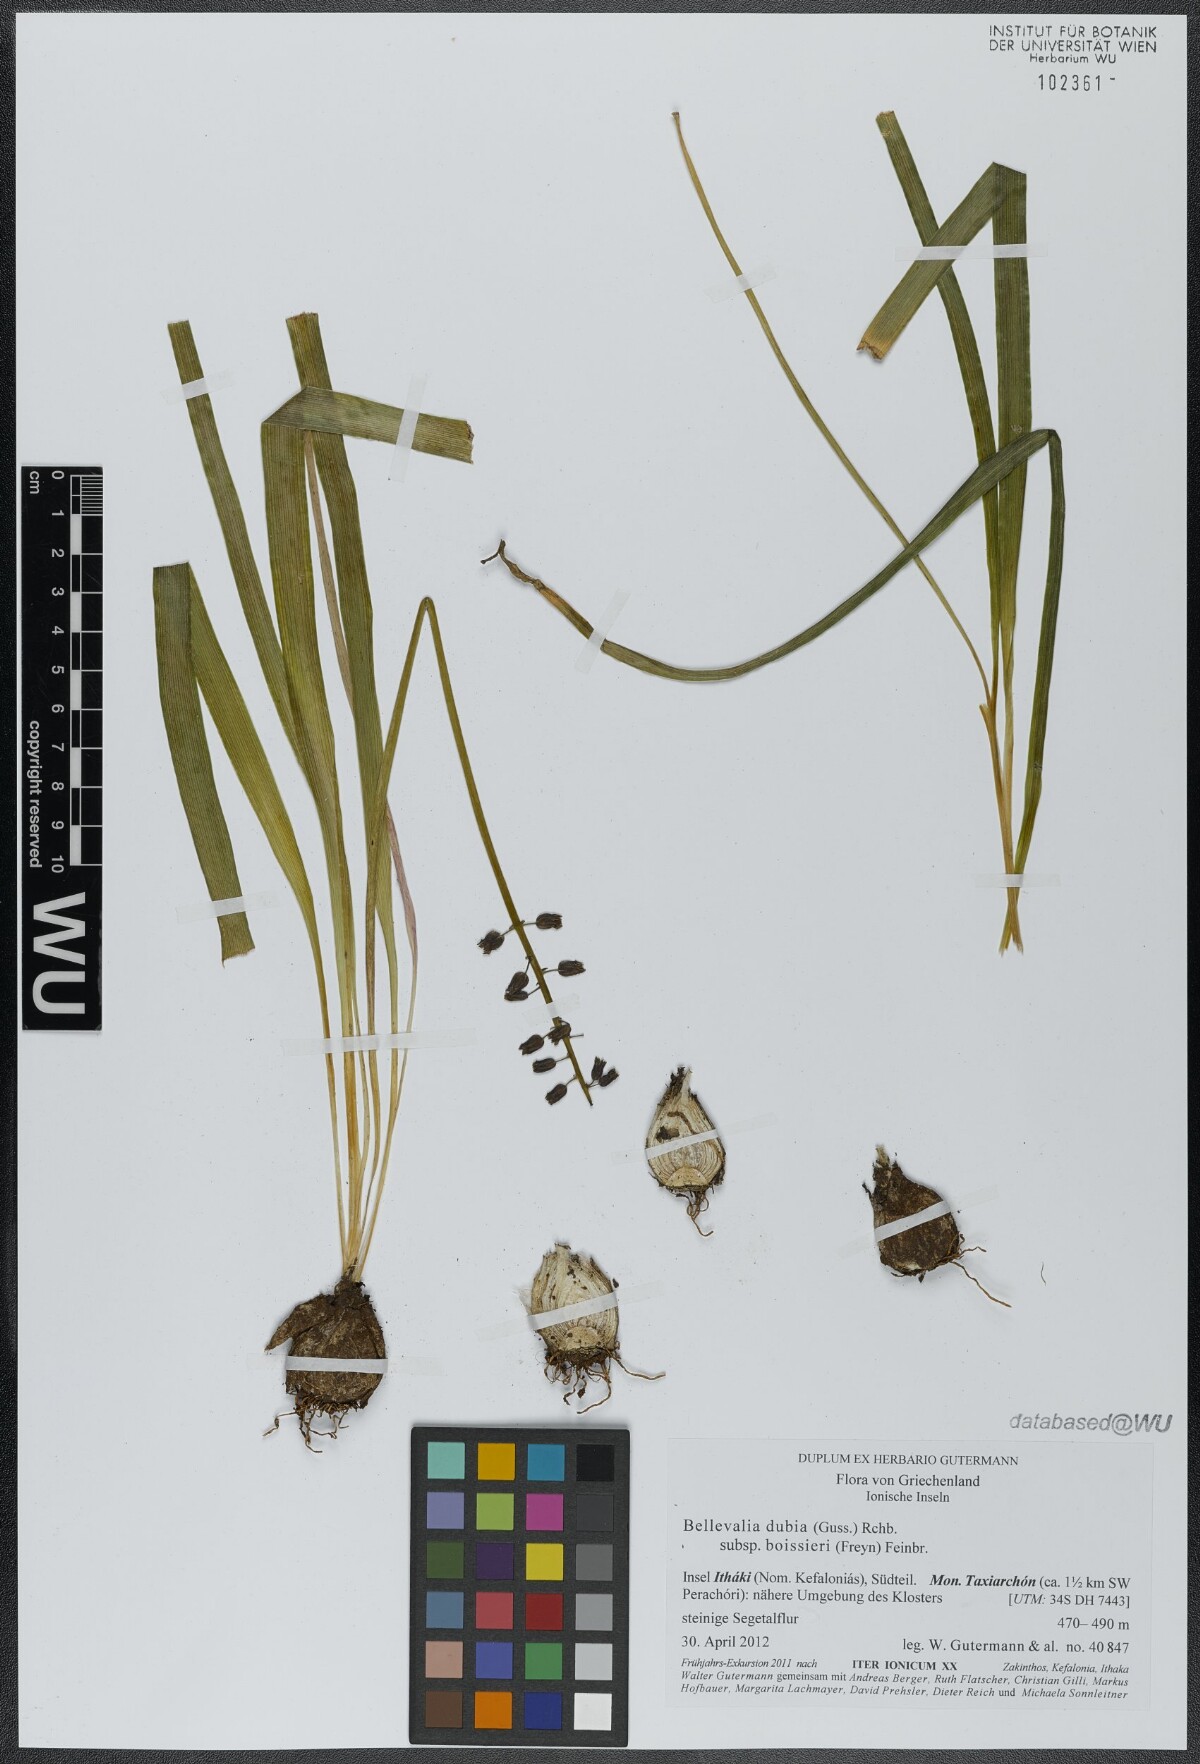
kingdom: Plantae
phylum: Tracheophyta
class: Liliopsida
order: Asparagales
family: Asparagaceae
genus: Bellevalia
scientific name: Bellevalia dubia
